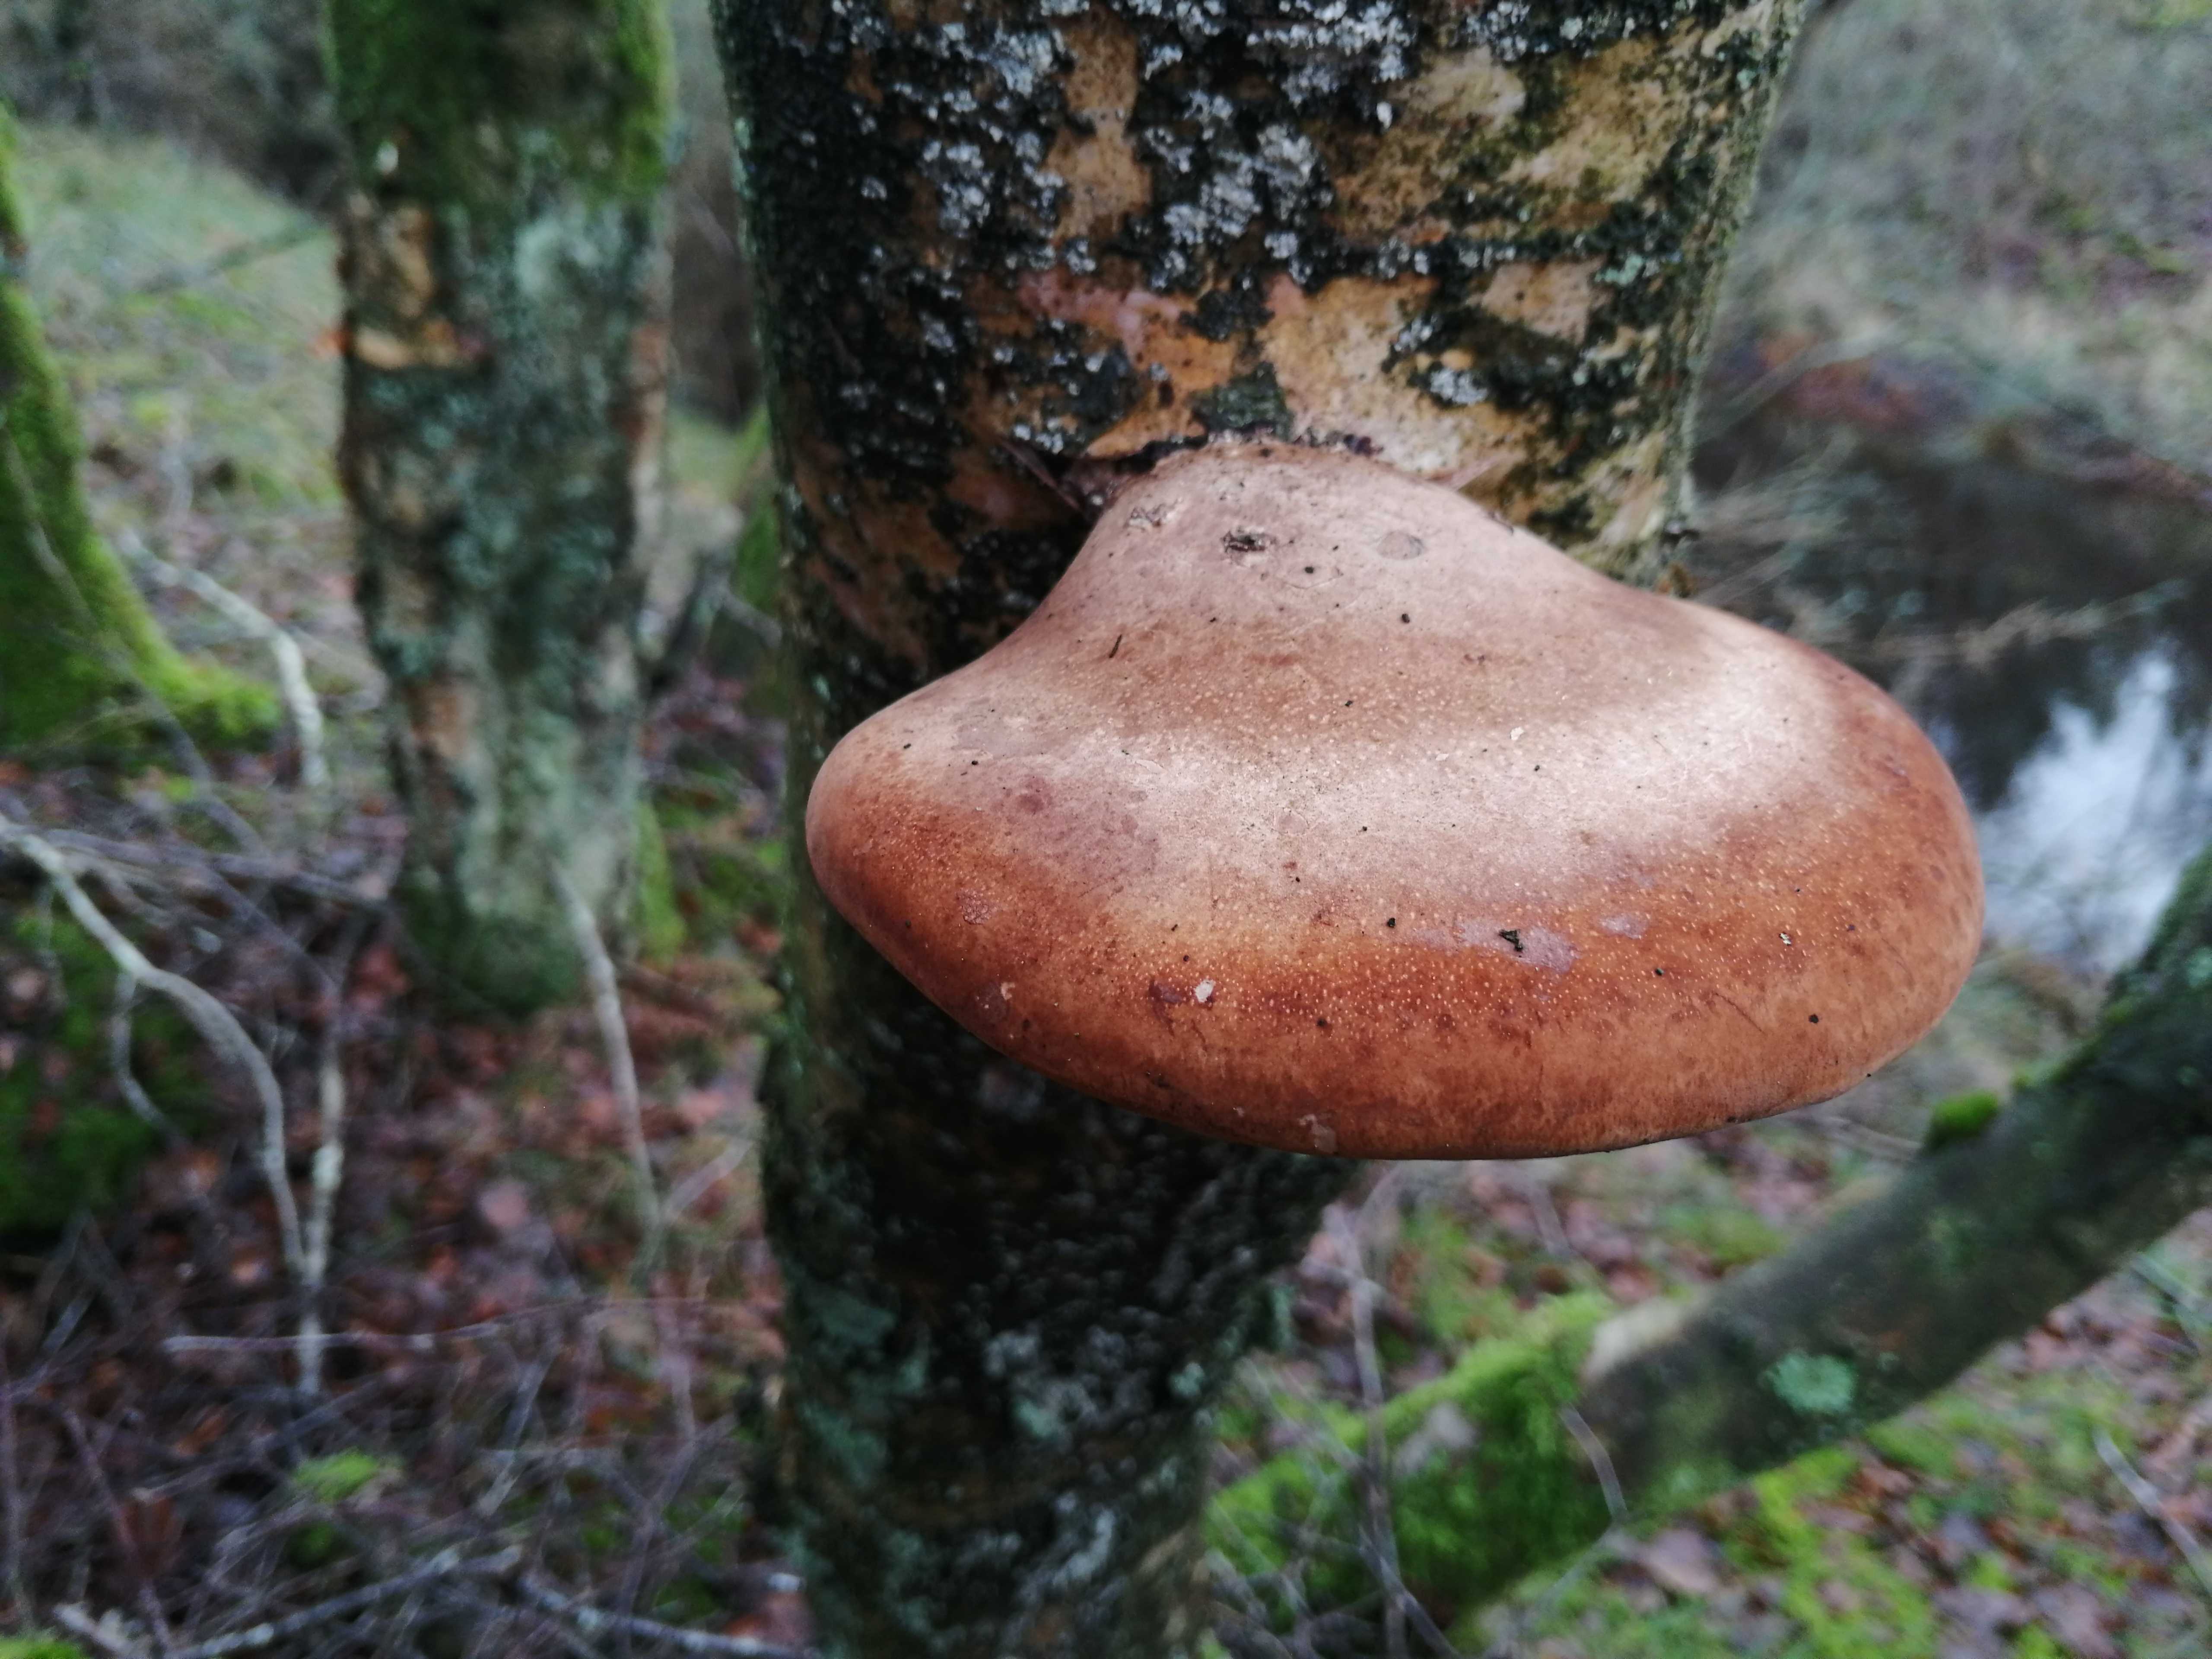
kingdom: Fungi
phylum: Basidiomycota
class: Agaricomycetes
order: Polyporales
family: Fomitopsidaceae
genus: Fomitopsis
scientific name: Fomitopsis betulina
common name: birkeporesvamp
